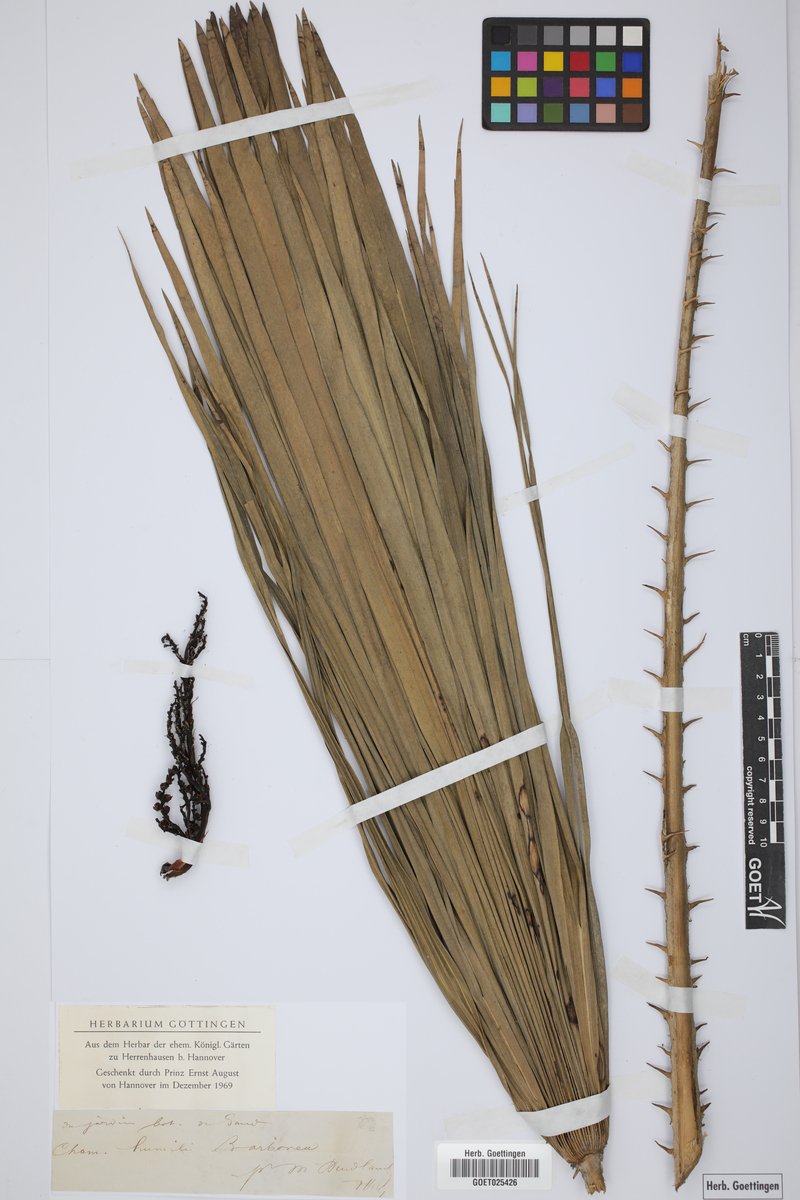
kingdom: Plantae
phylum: Tracheophyta
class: Liliopsida
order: Arecales
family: Arecaceae
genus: Chamaerops
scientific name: Chamaerops humilis
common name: Dwarf fan palm
